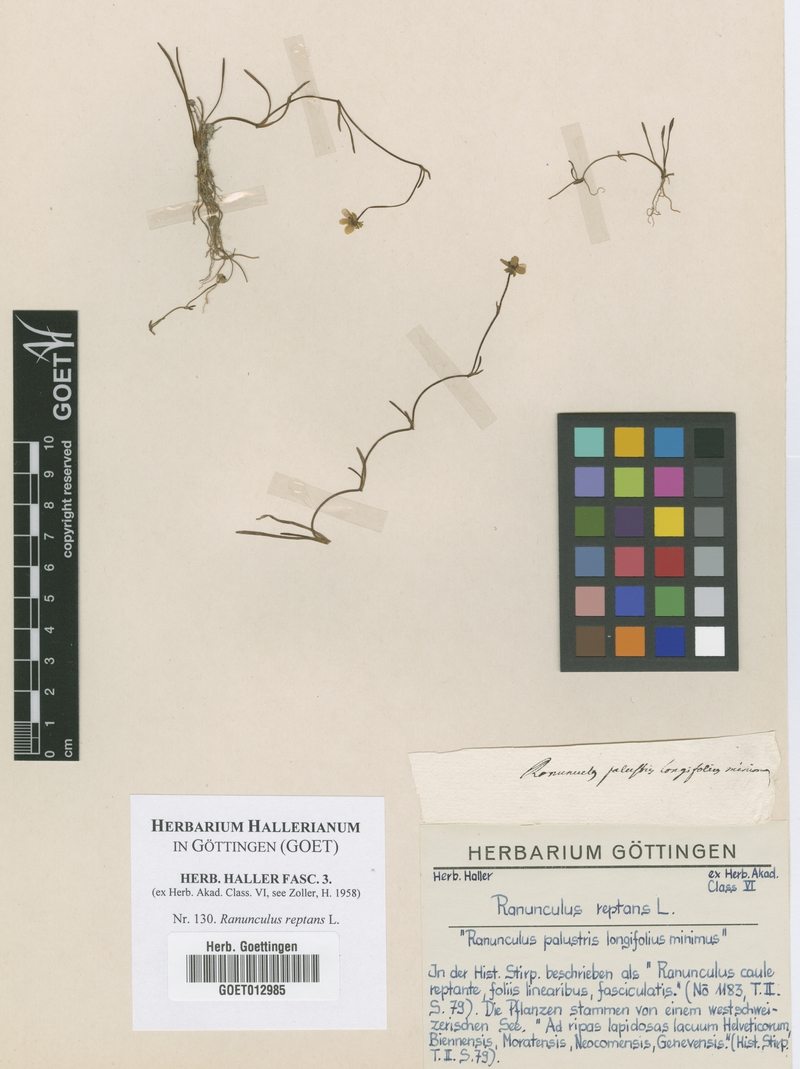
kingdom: Plantae
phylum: Tracheophyta
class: Magnoliopsida
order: Ranunculales
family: Ranunculaceae
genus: Ranunculus
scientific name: Ranunculus reptans
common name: Creeping spearwort
